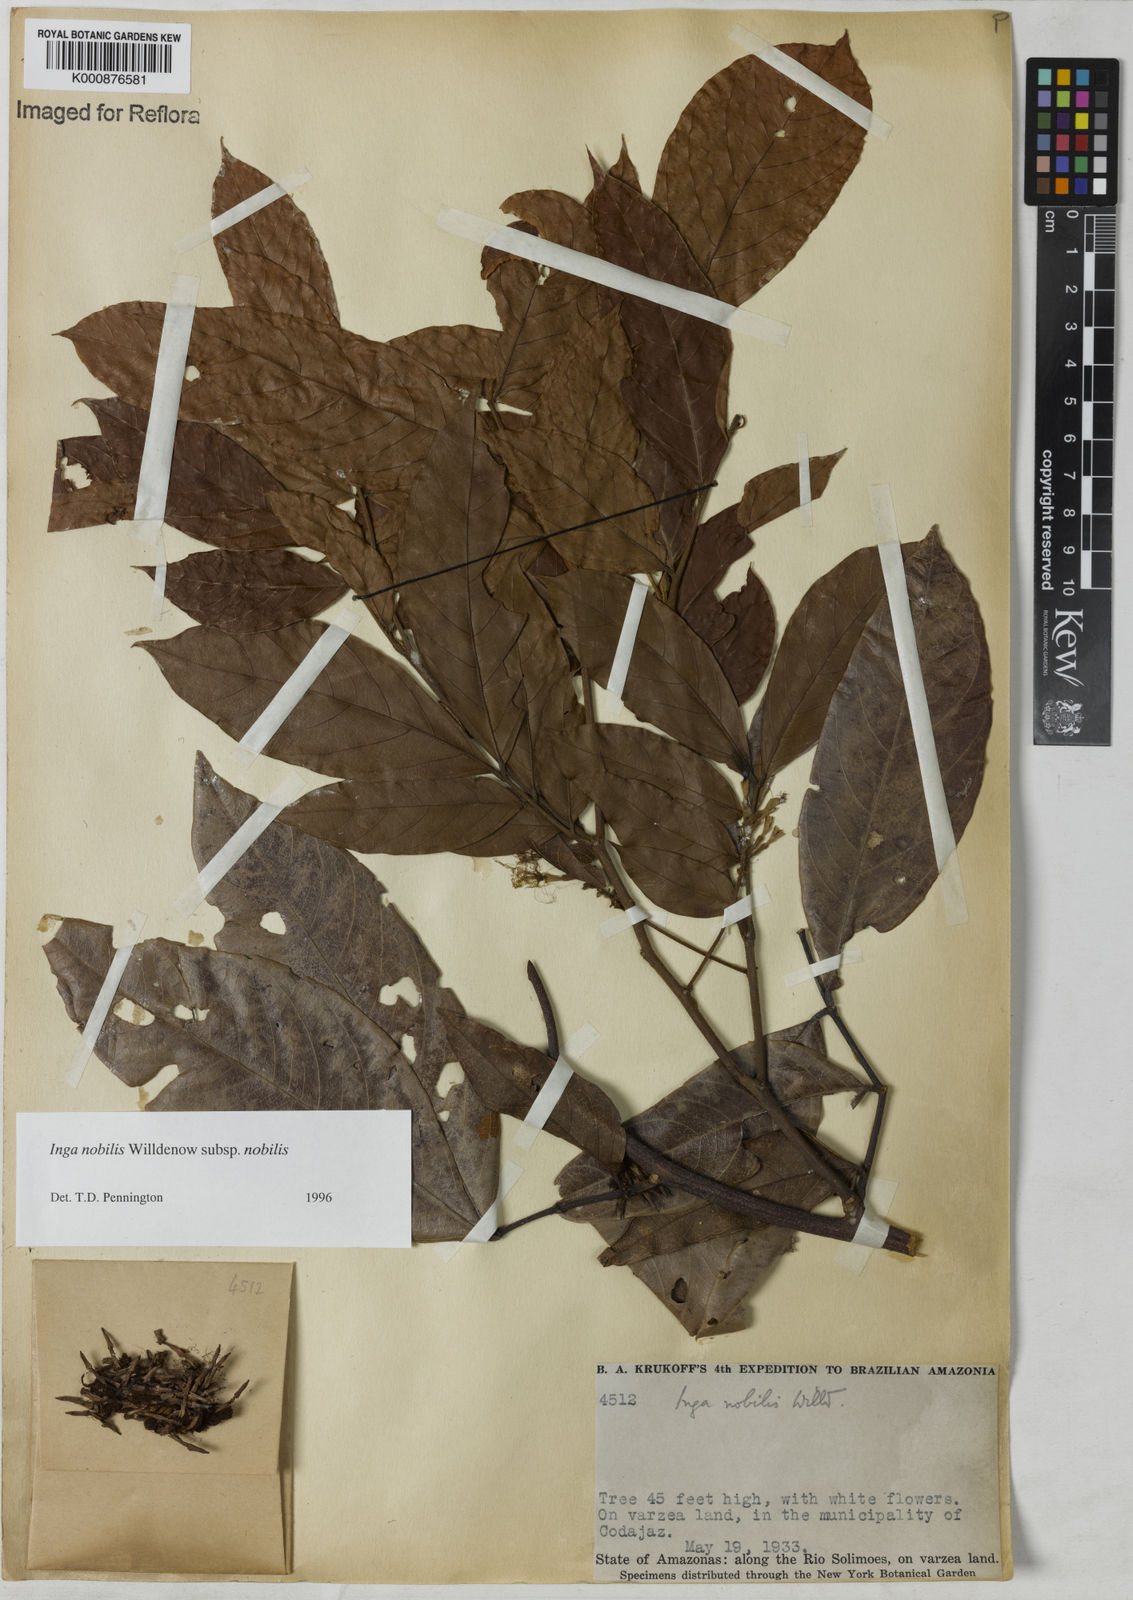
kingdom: Plantae
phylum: Tracheophyta
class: Magnoliopsida
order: Fabales
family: Fabaceae
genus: Inga
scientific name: Inga nobilis
